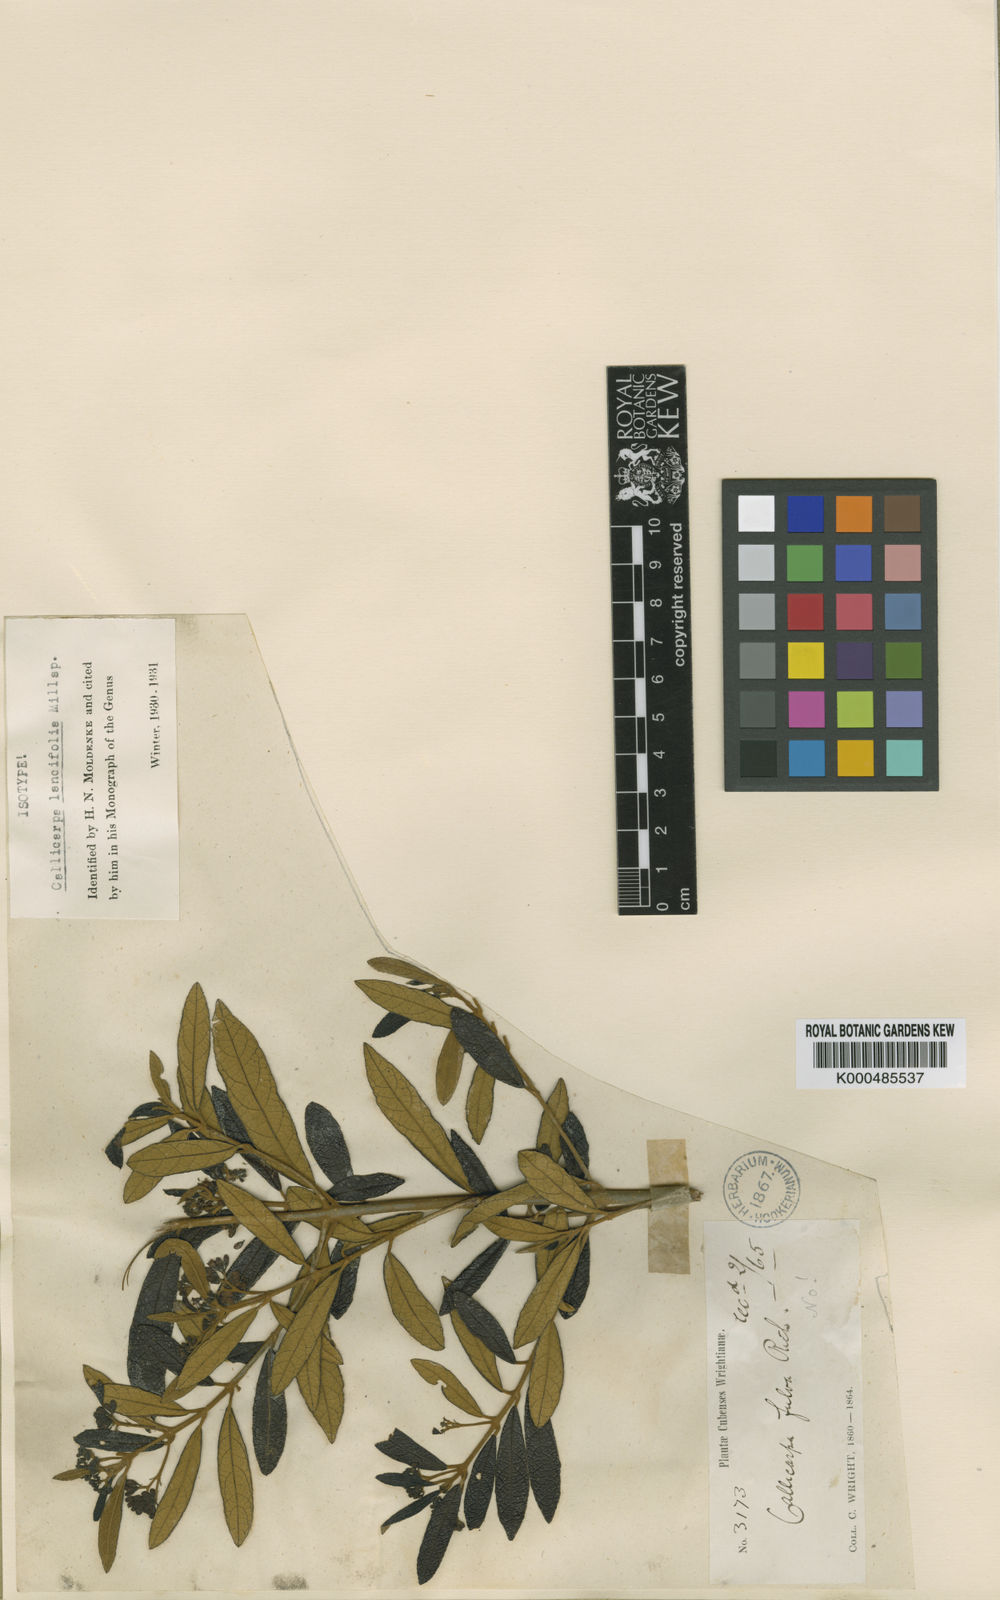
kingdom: Plantae
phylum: Tracheophyta
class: Magnoliopsida
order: Lamiales
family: Lamiaceae
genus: Callicarpa
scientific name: Callicarpa lancifolia
